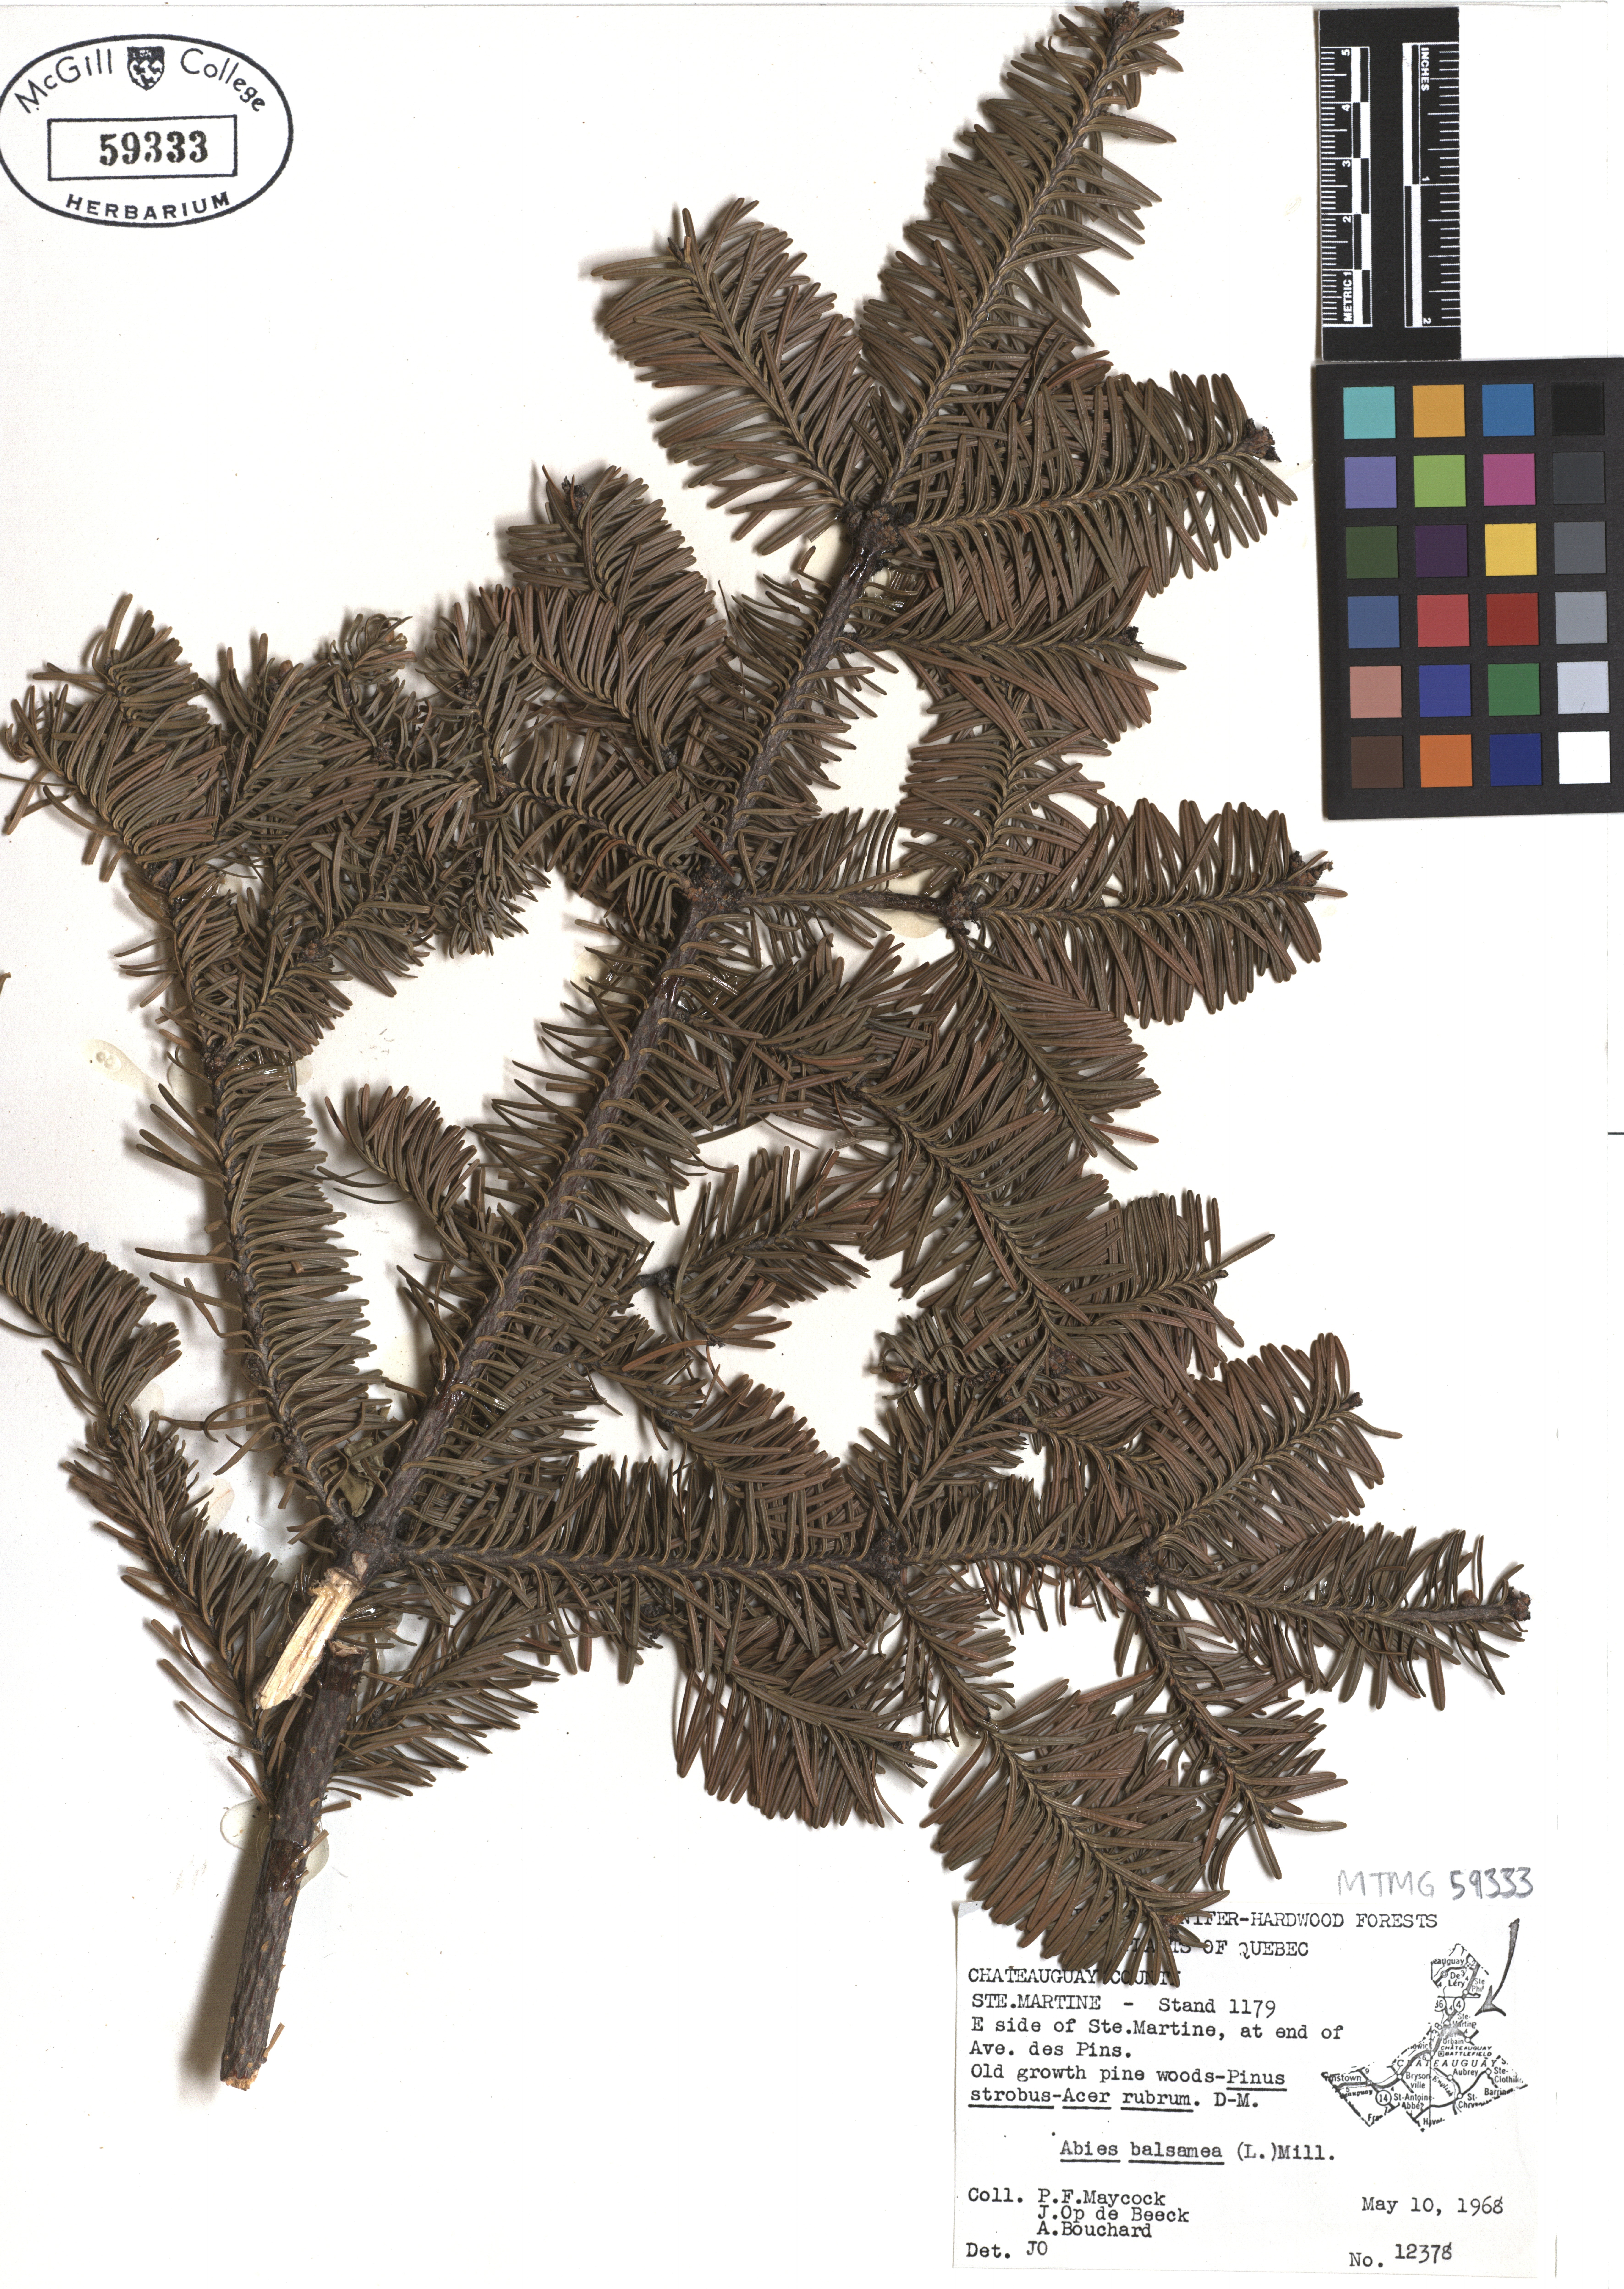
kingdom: Plantae
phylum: Tracheophyta
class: Pinopsida
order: Pinales
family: Pinaceae
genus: Abies
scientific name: Abies balsamea
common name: Balsam fir
